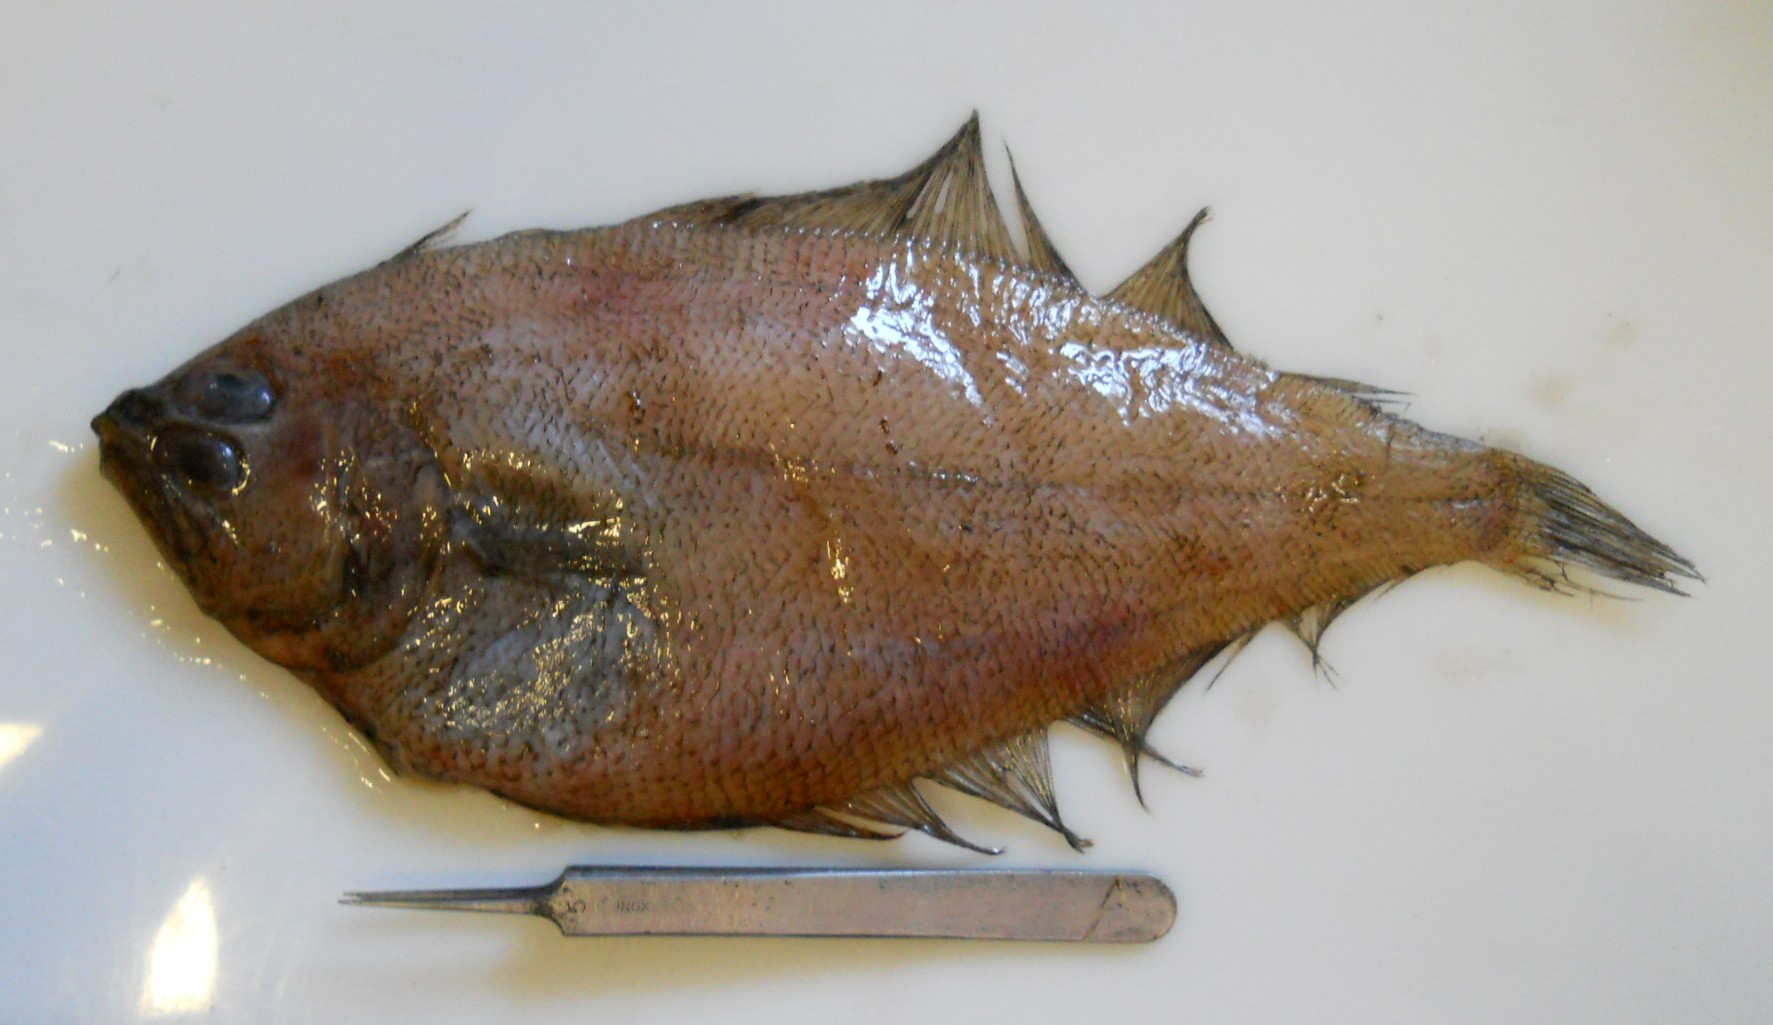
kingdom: Animalia
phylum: Chordata
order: Pleuronectiformes
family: Bothidae
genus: Laeops
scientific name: Laeops nigromaculatus
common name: Blackspotted flounder
